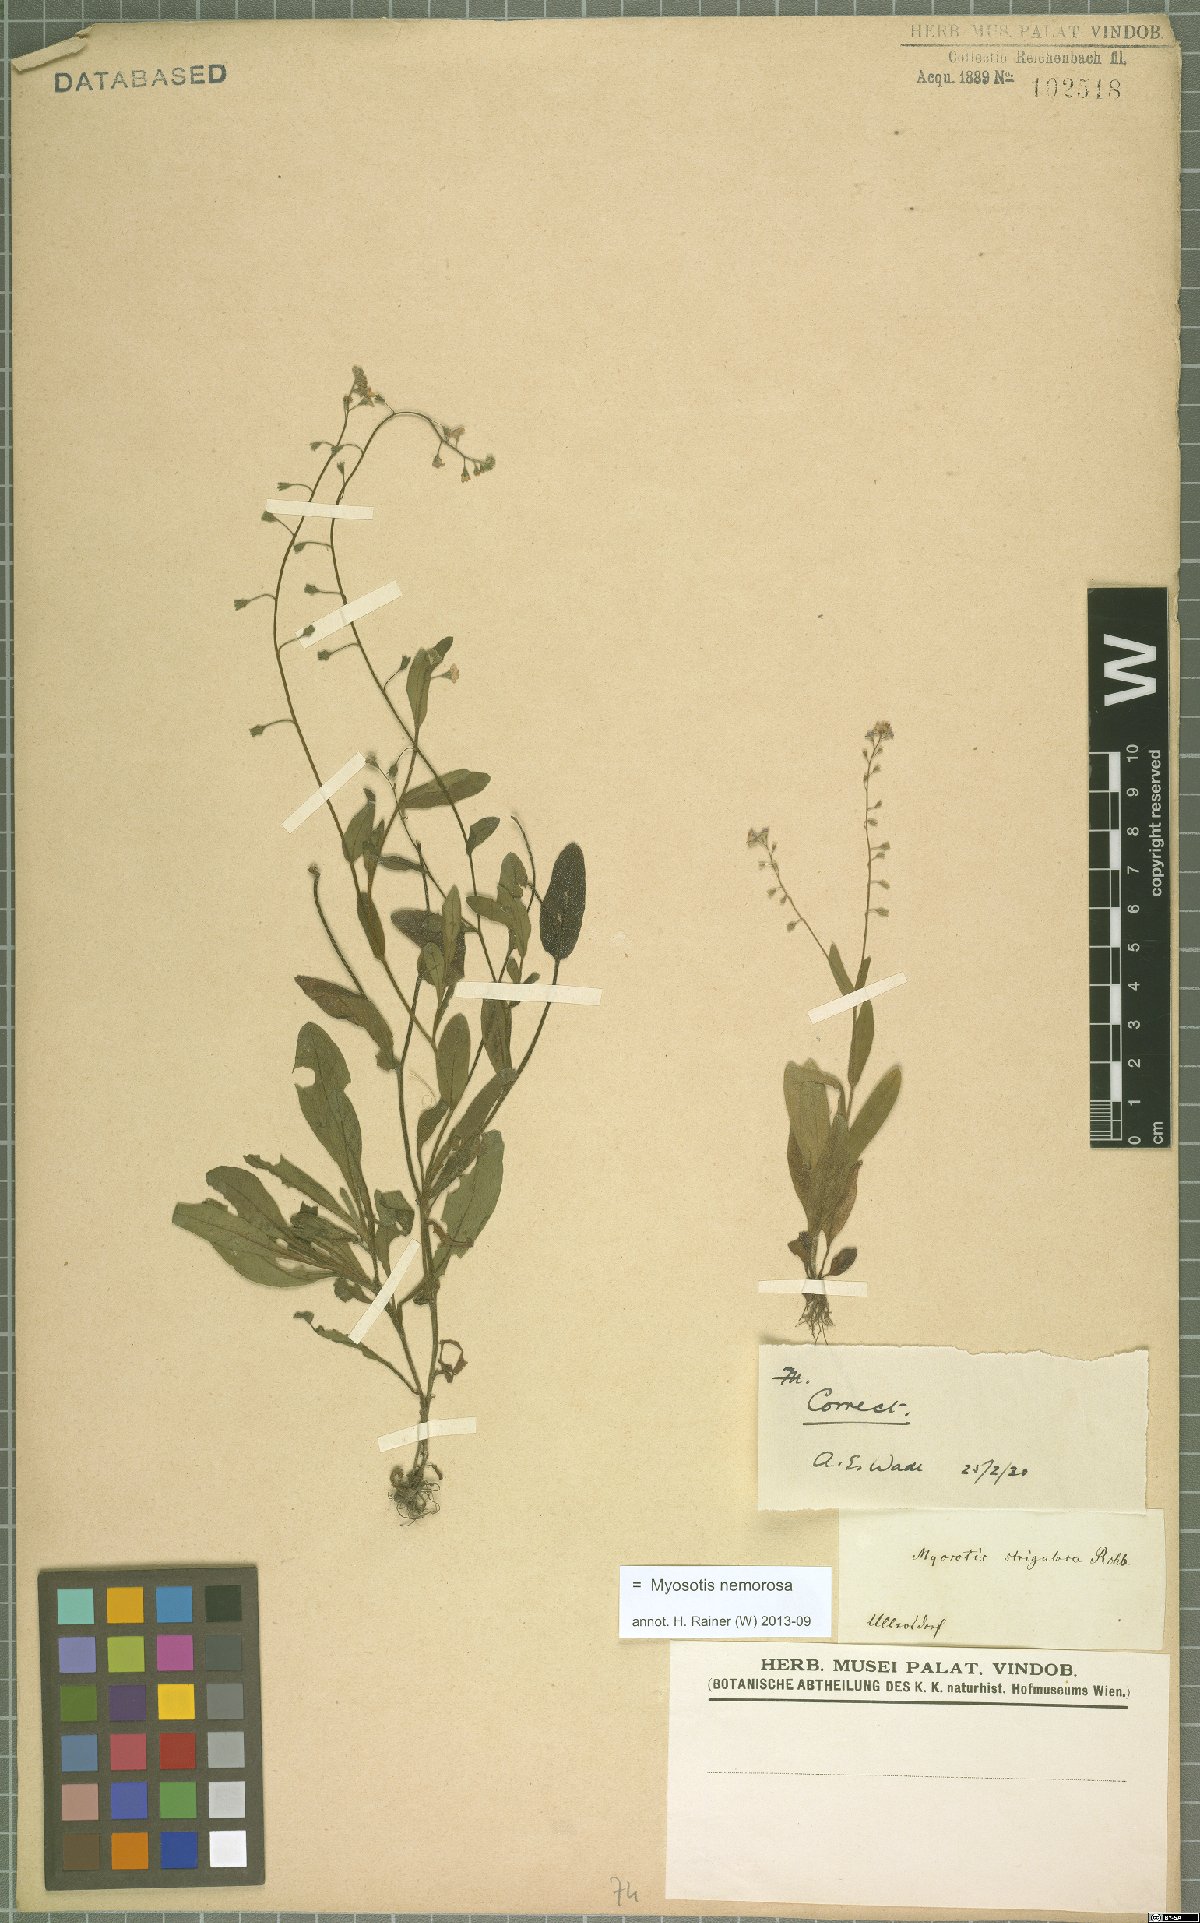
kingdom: Plantae
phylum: Tracheophyta
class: Magnoliopsida
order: Boraginales
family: Boraginaceae
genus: Myosotis
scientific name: Myosotis nemorosa
